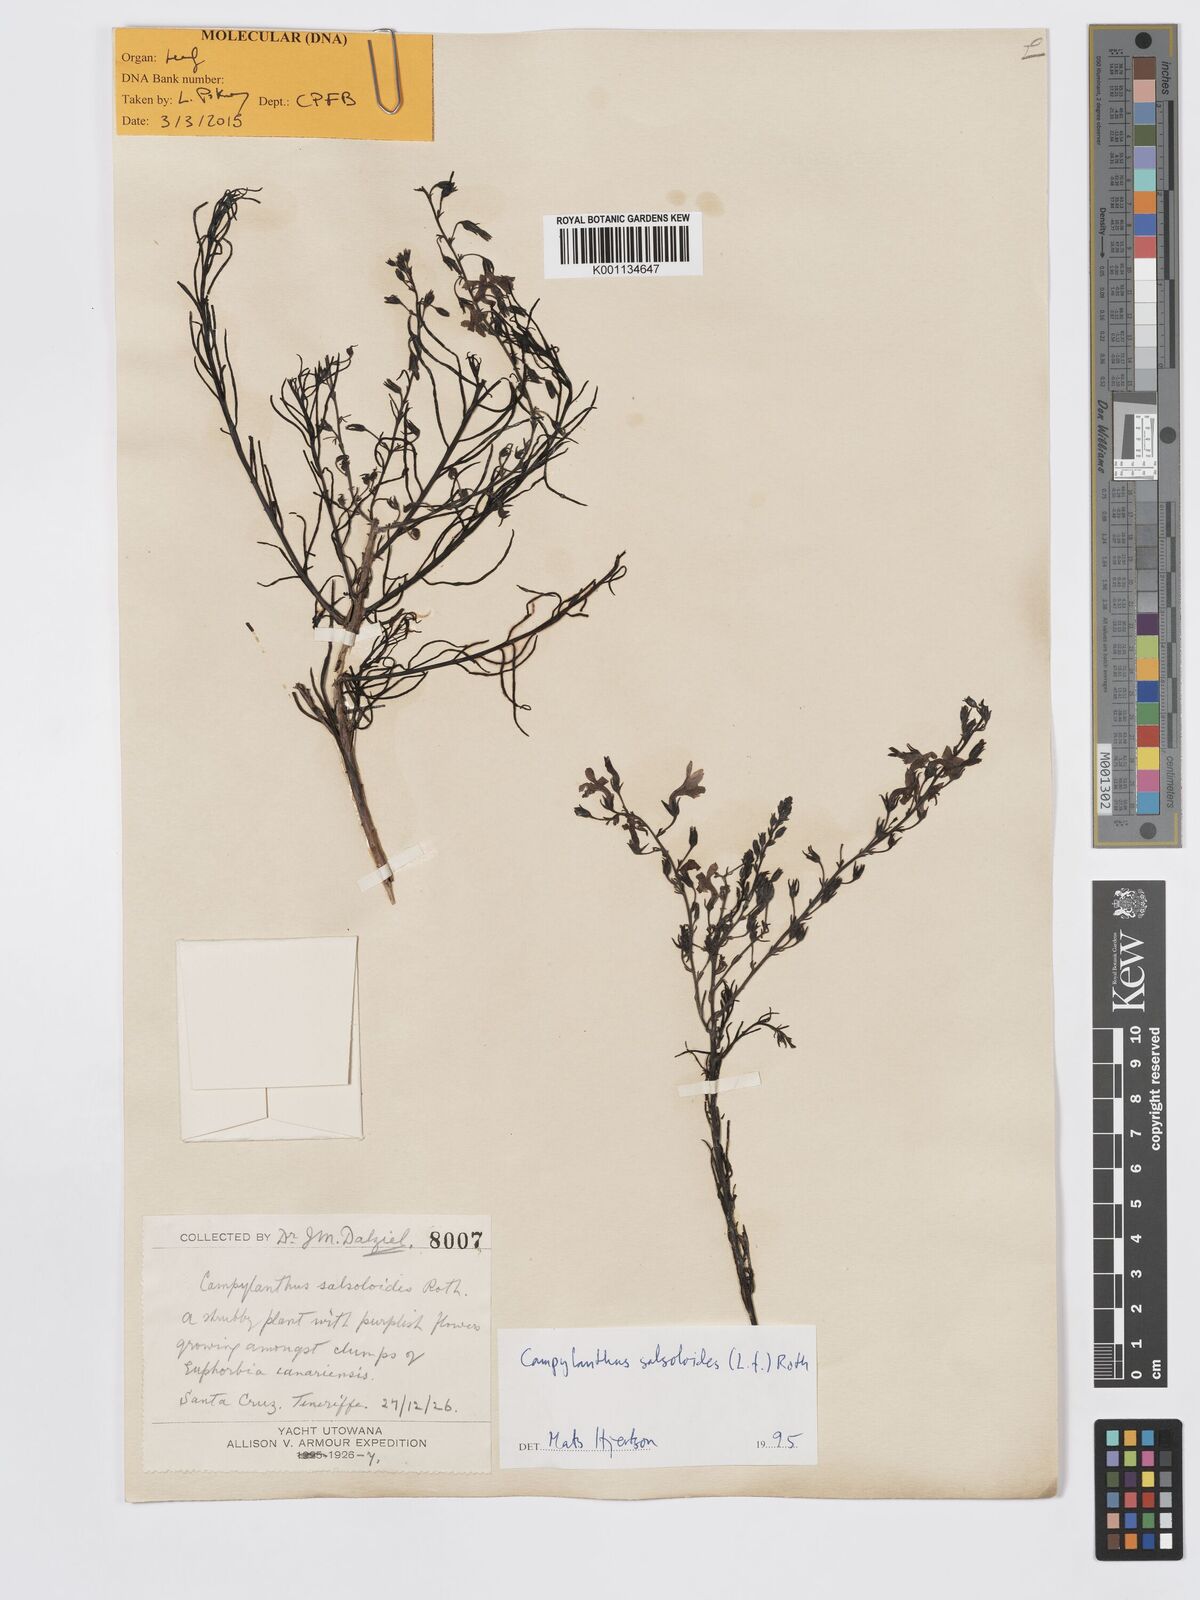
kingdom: Plantae
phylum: Tracheophyta
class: Magnoliopsida
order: Lamiales
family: Plantaginaceae
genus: Campylanthus
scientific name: Campylanthus
